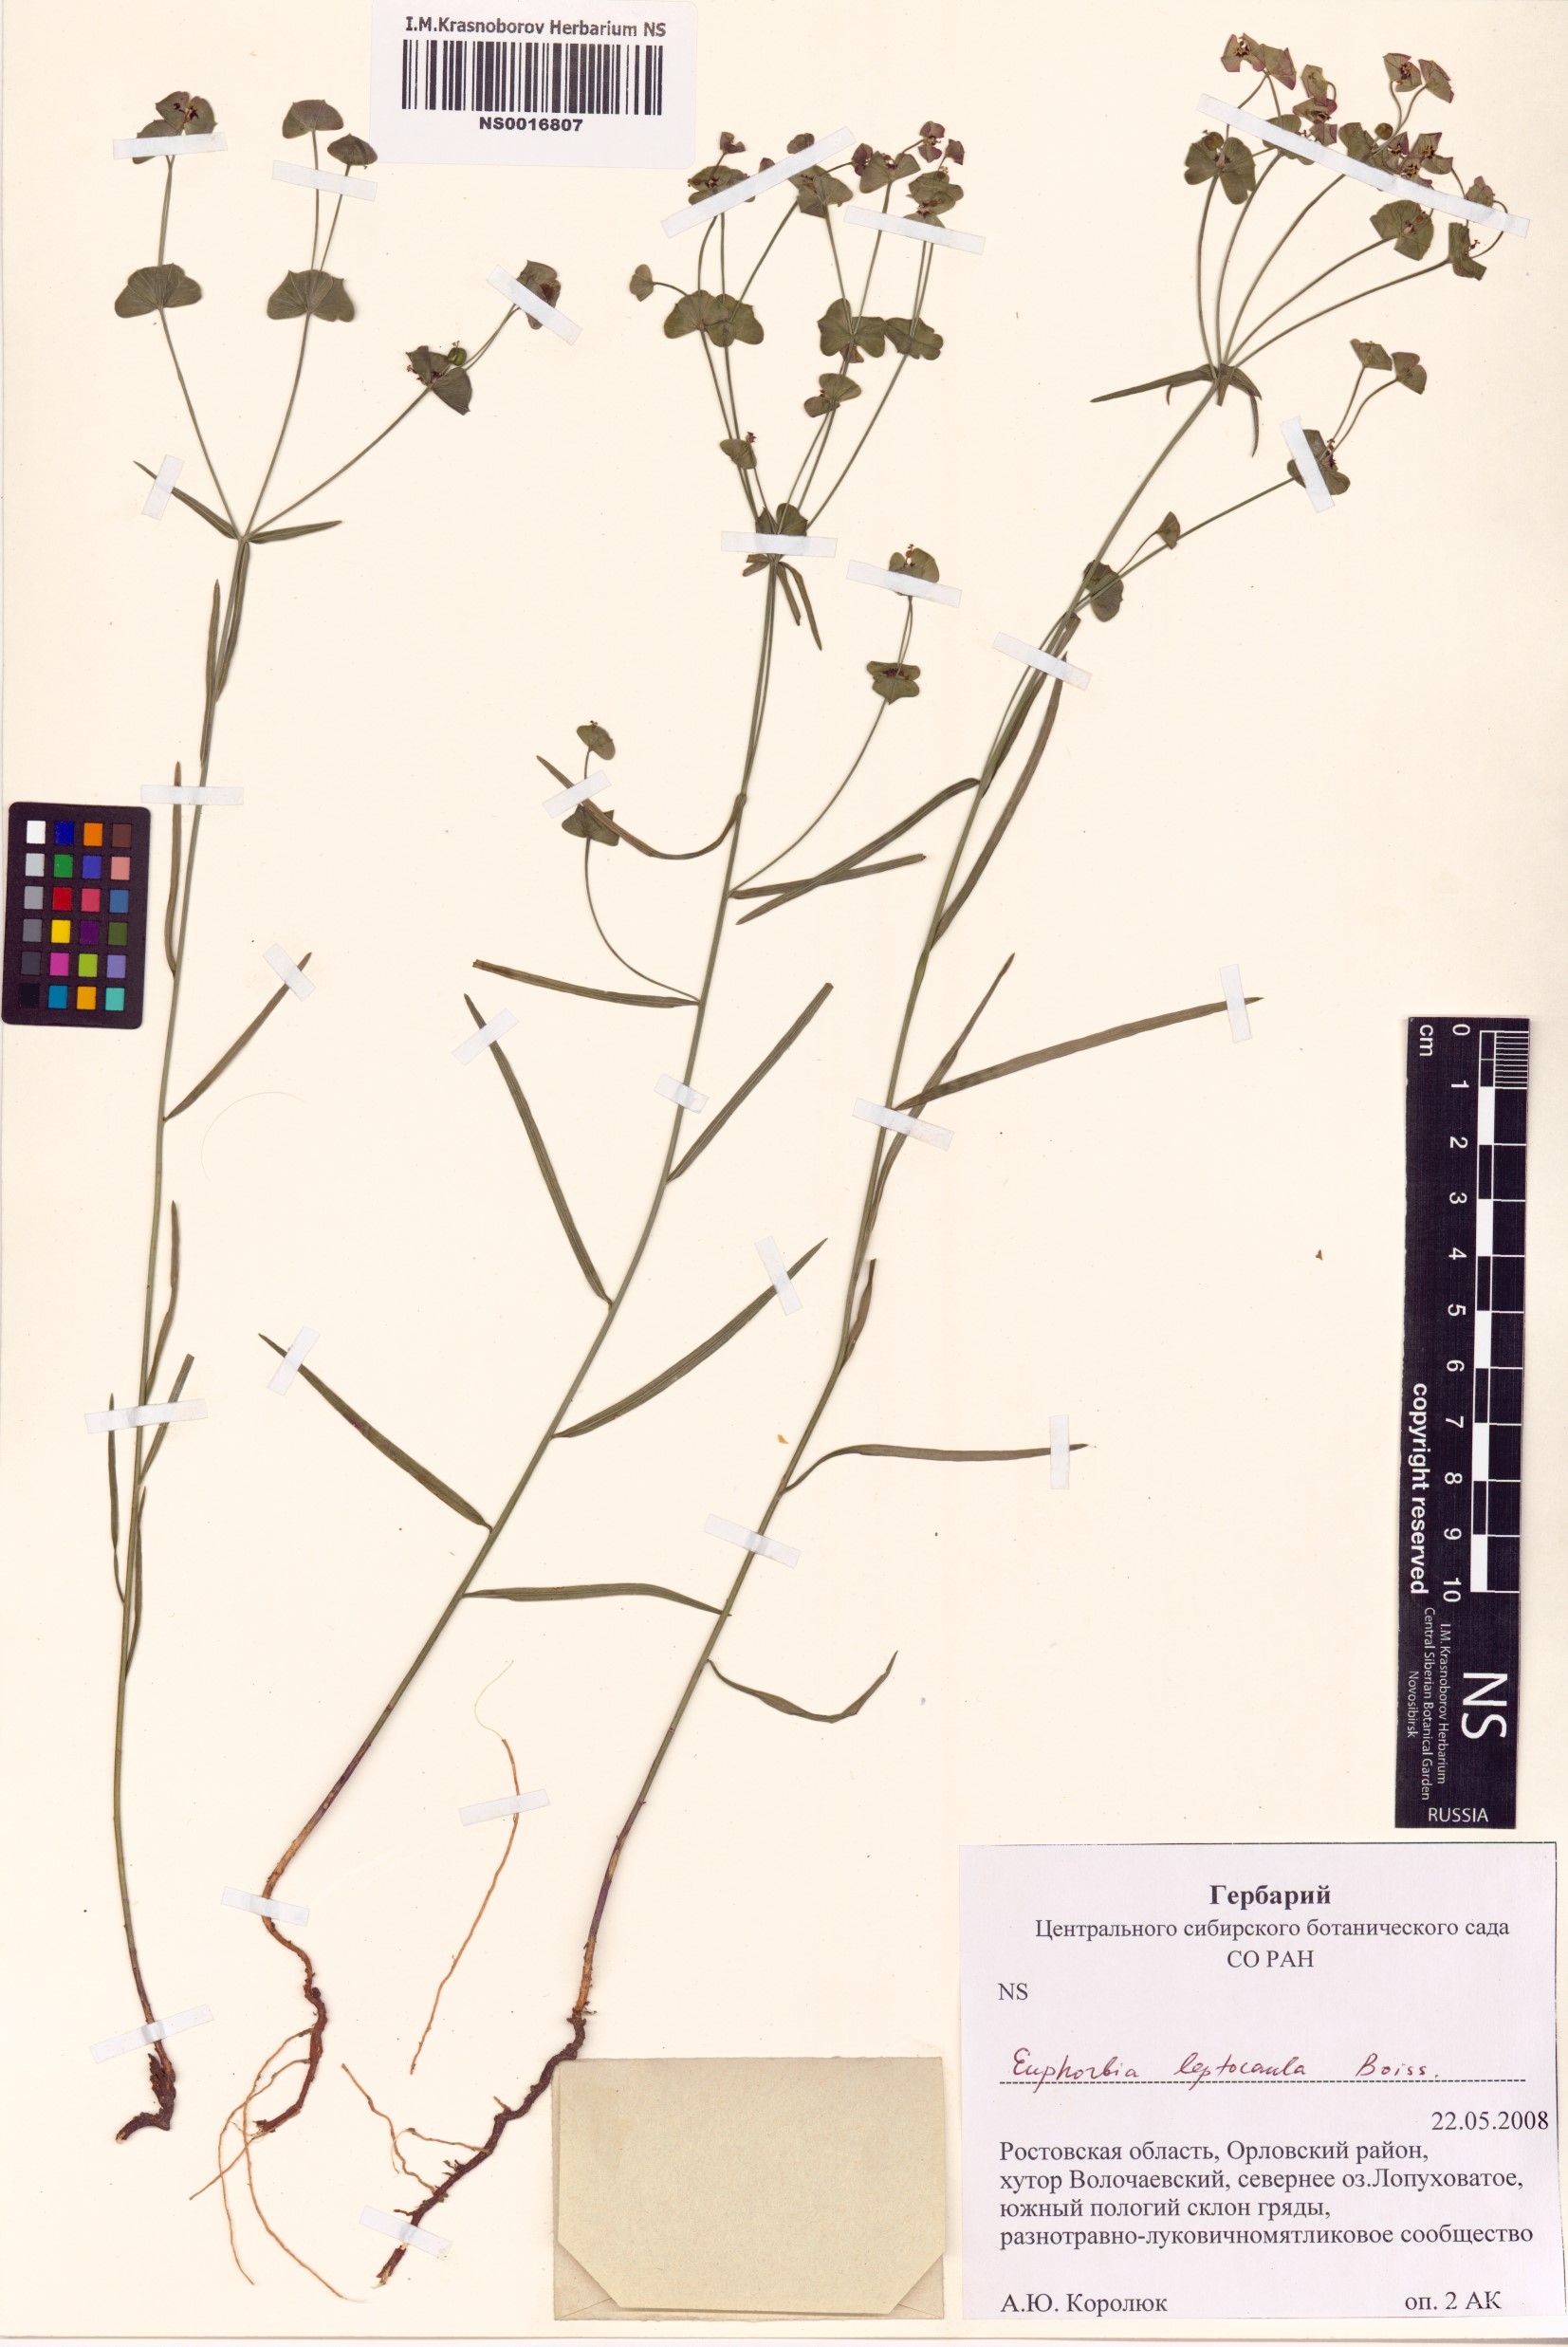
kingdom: Plantae
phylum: Tracheophyta
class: Magnoliopsida
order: Malpighiales
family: Euphorbiaceae
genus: Euphorbia
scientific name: Euphorbia leptocaula
